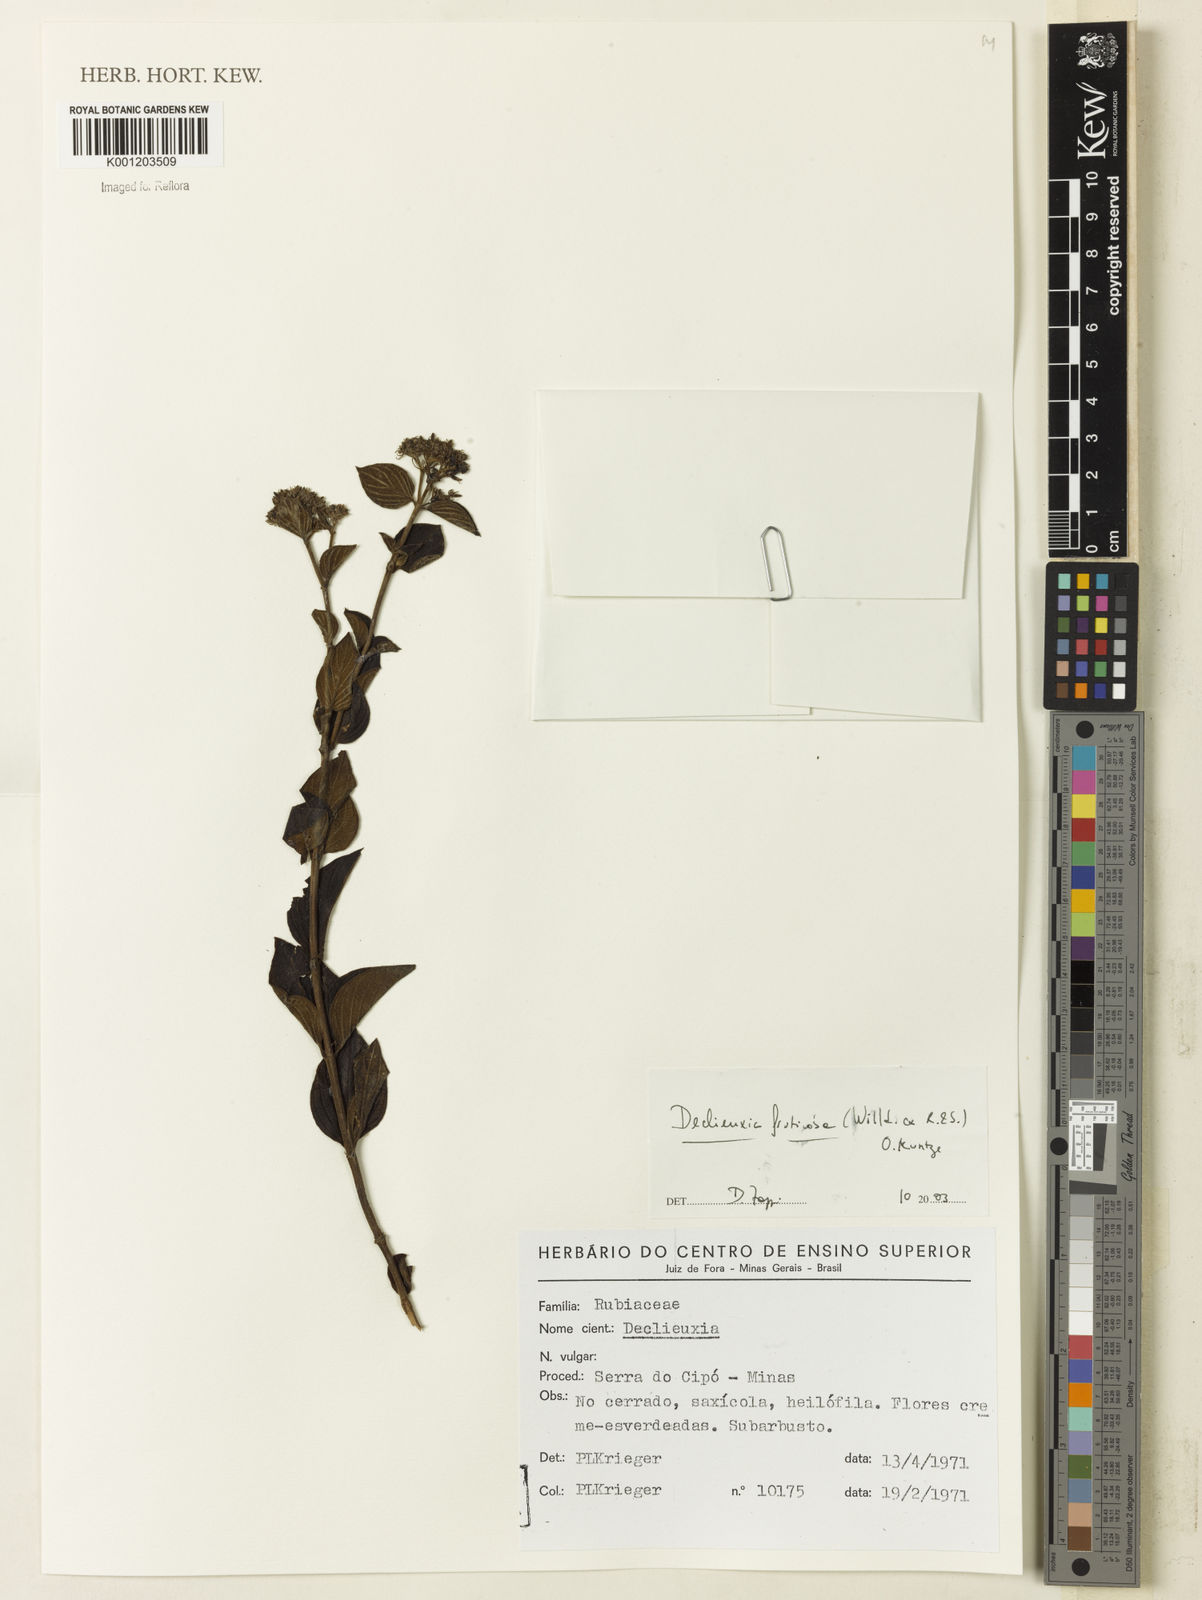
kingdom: Plantae
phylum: Tracheophyta
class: Magnoliopsida
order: Gentianales
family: Rubiaceae
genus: Declieuxia
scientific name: Declieuxia fruticosa
